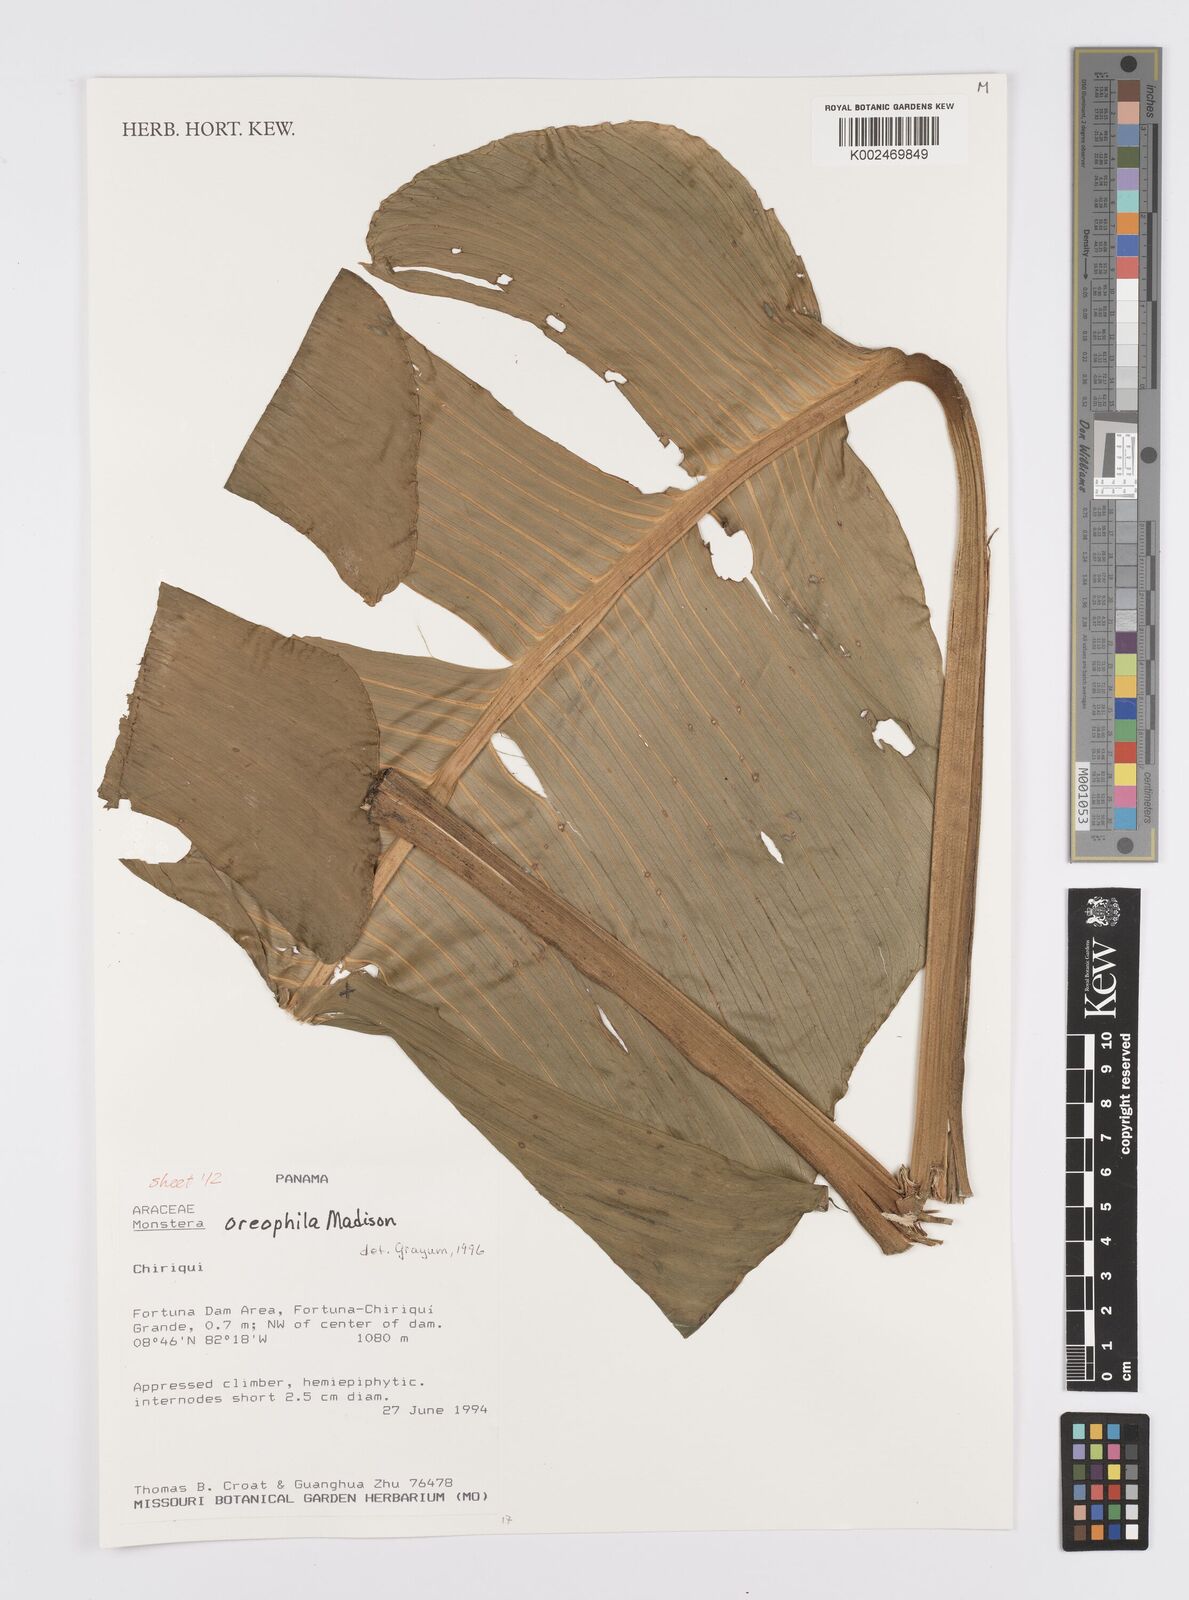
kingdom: Plantae
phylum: Tracheophyta
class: Liliopsida
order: Alismatales
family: Araceae
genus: Monstera
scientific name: Monstera oreophila
